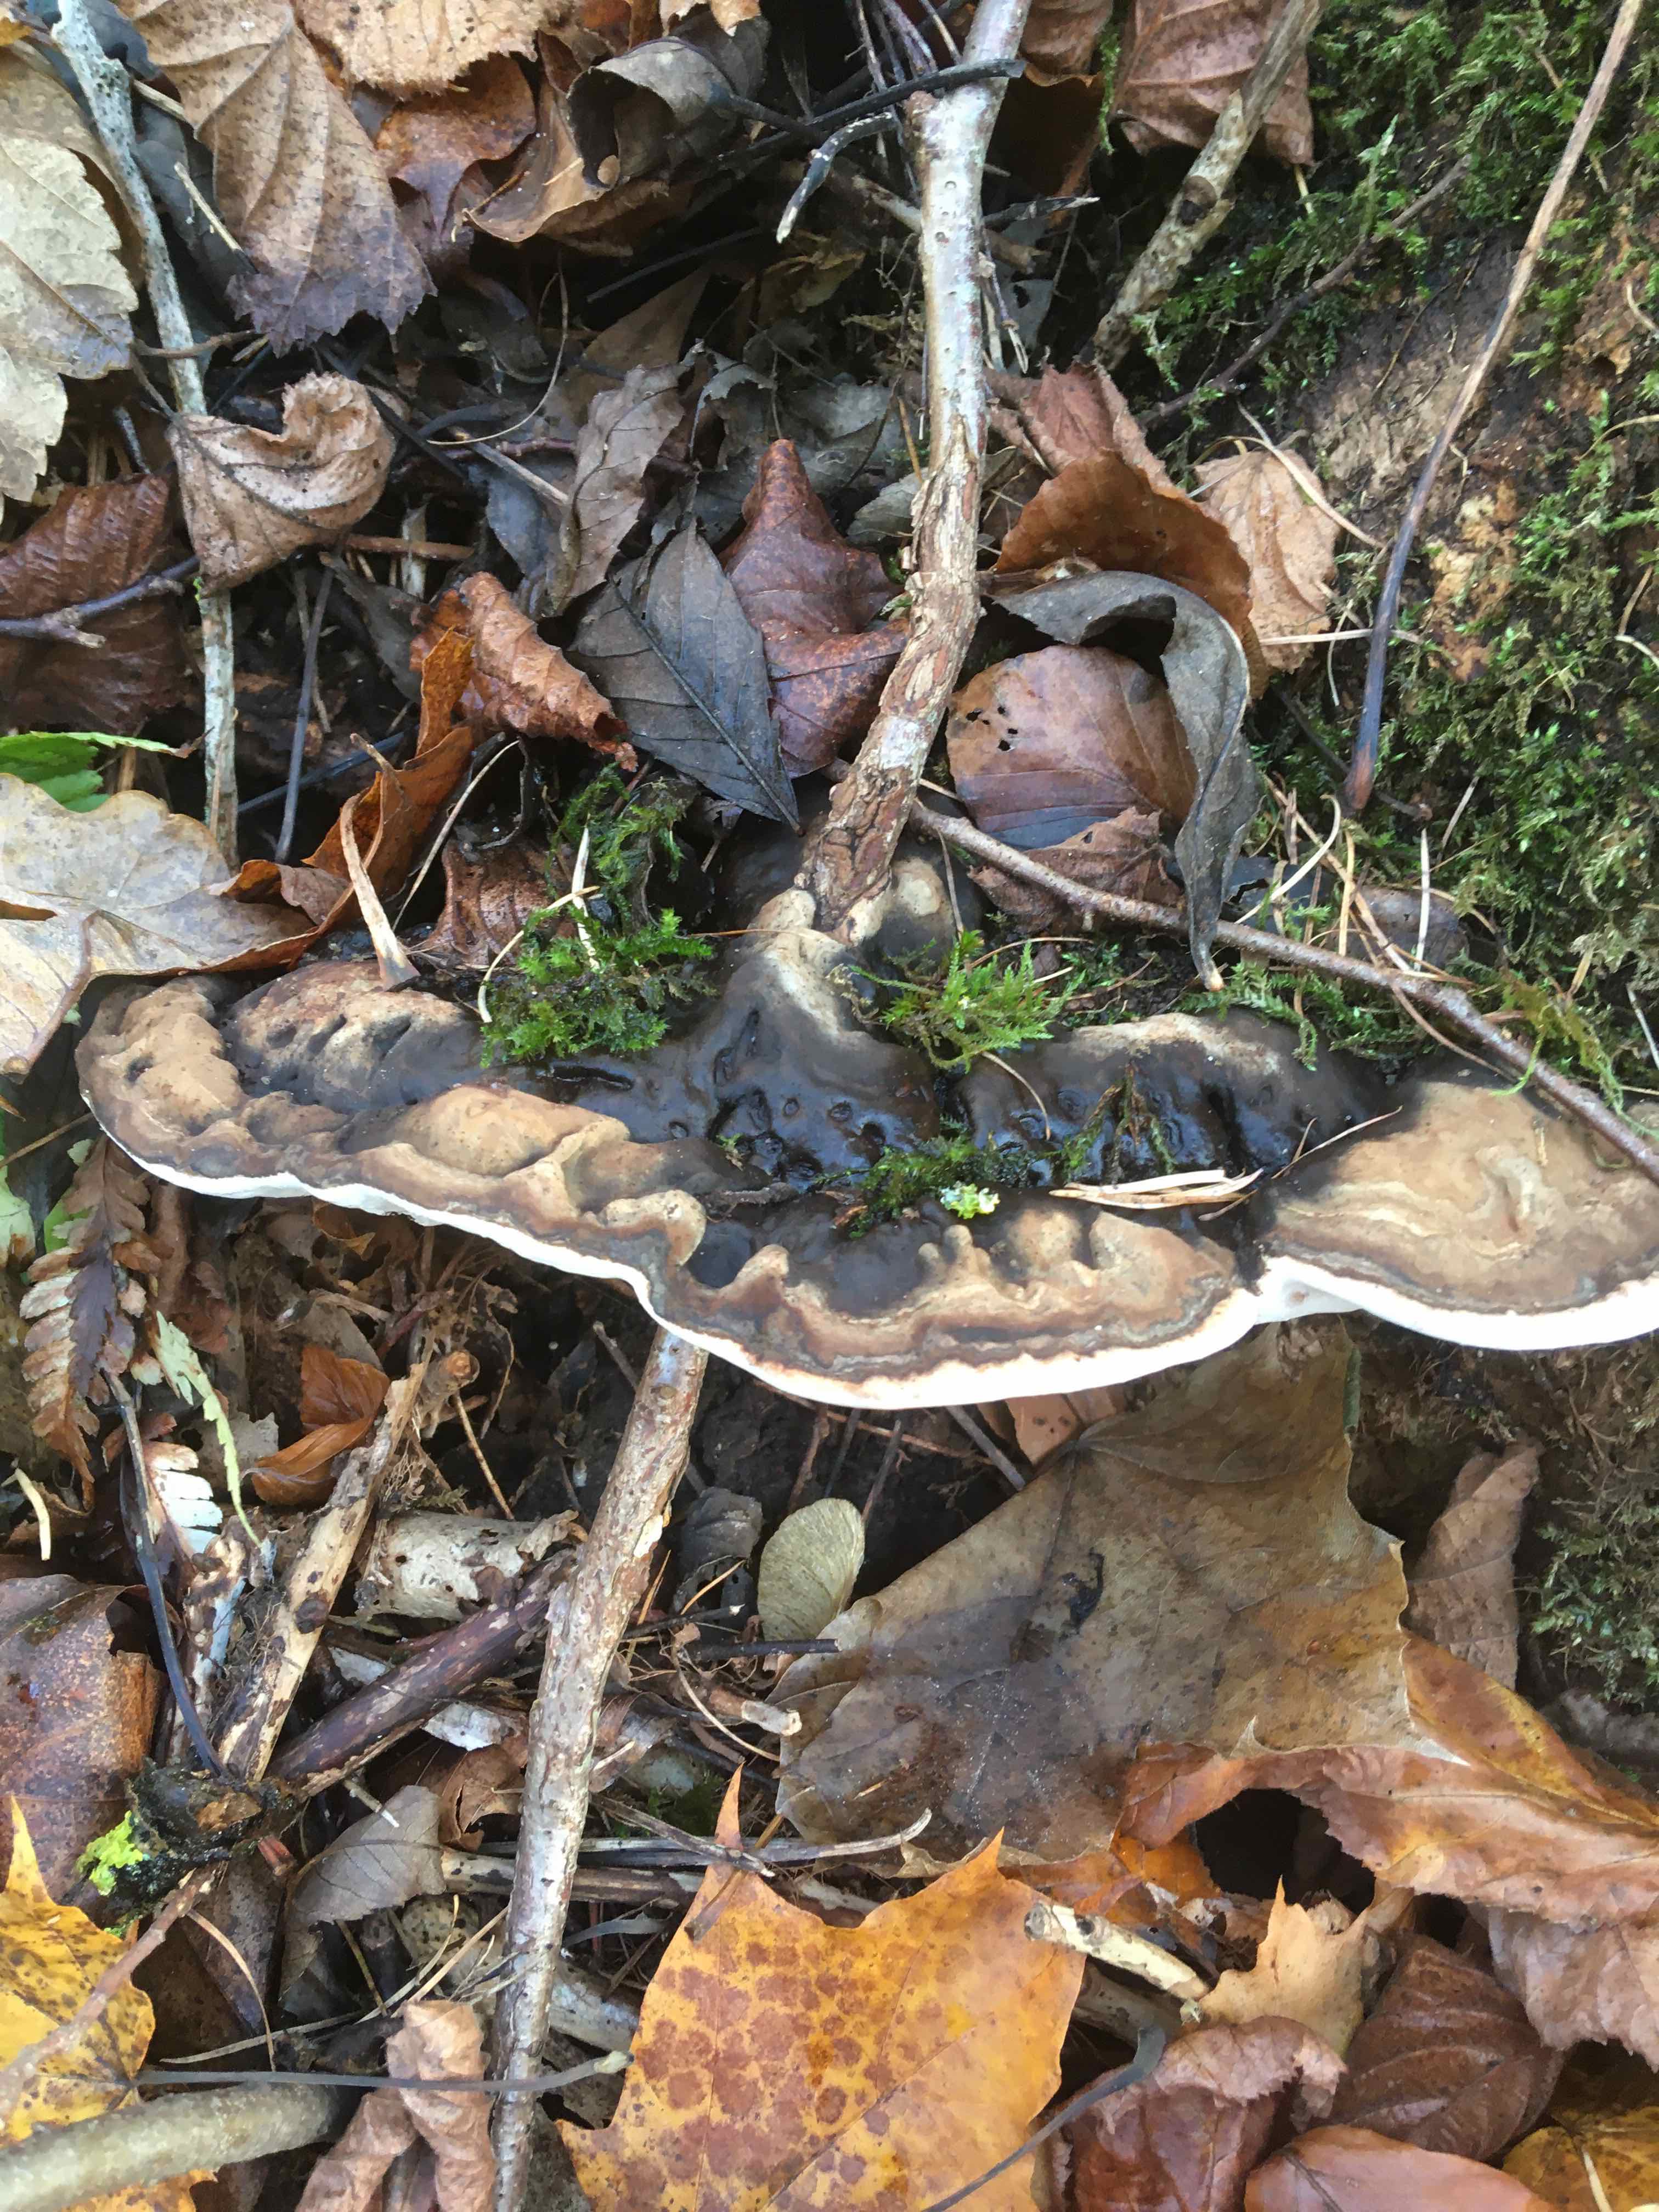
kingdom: Fungi
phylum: Basidiomycota
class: Agaricomycetes
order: Polyporales
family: Polyporaceae
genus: Ganoderma
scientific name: Ganoderma applanatum
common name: flad lakporesvamp
